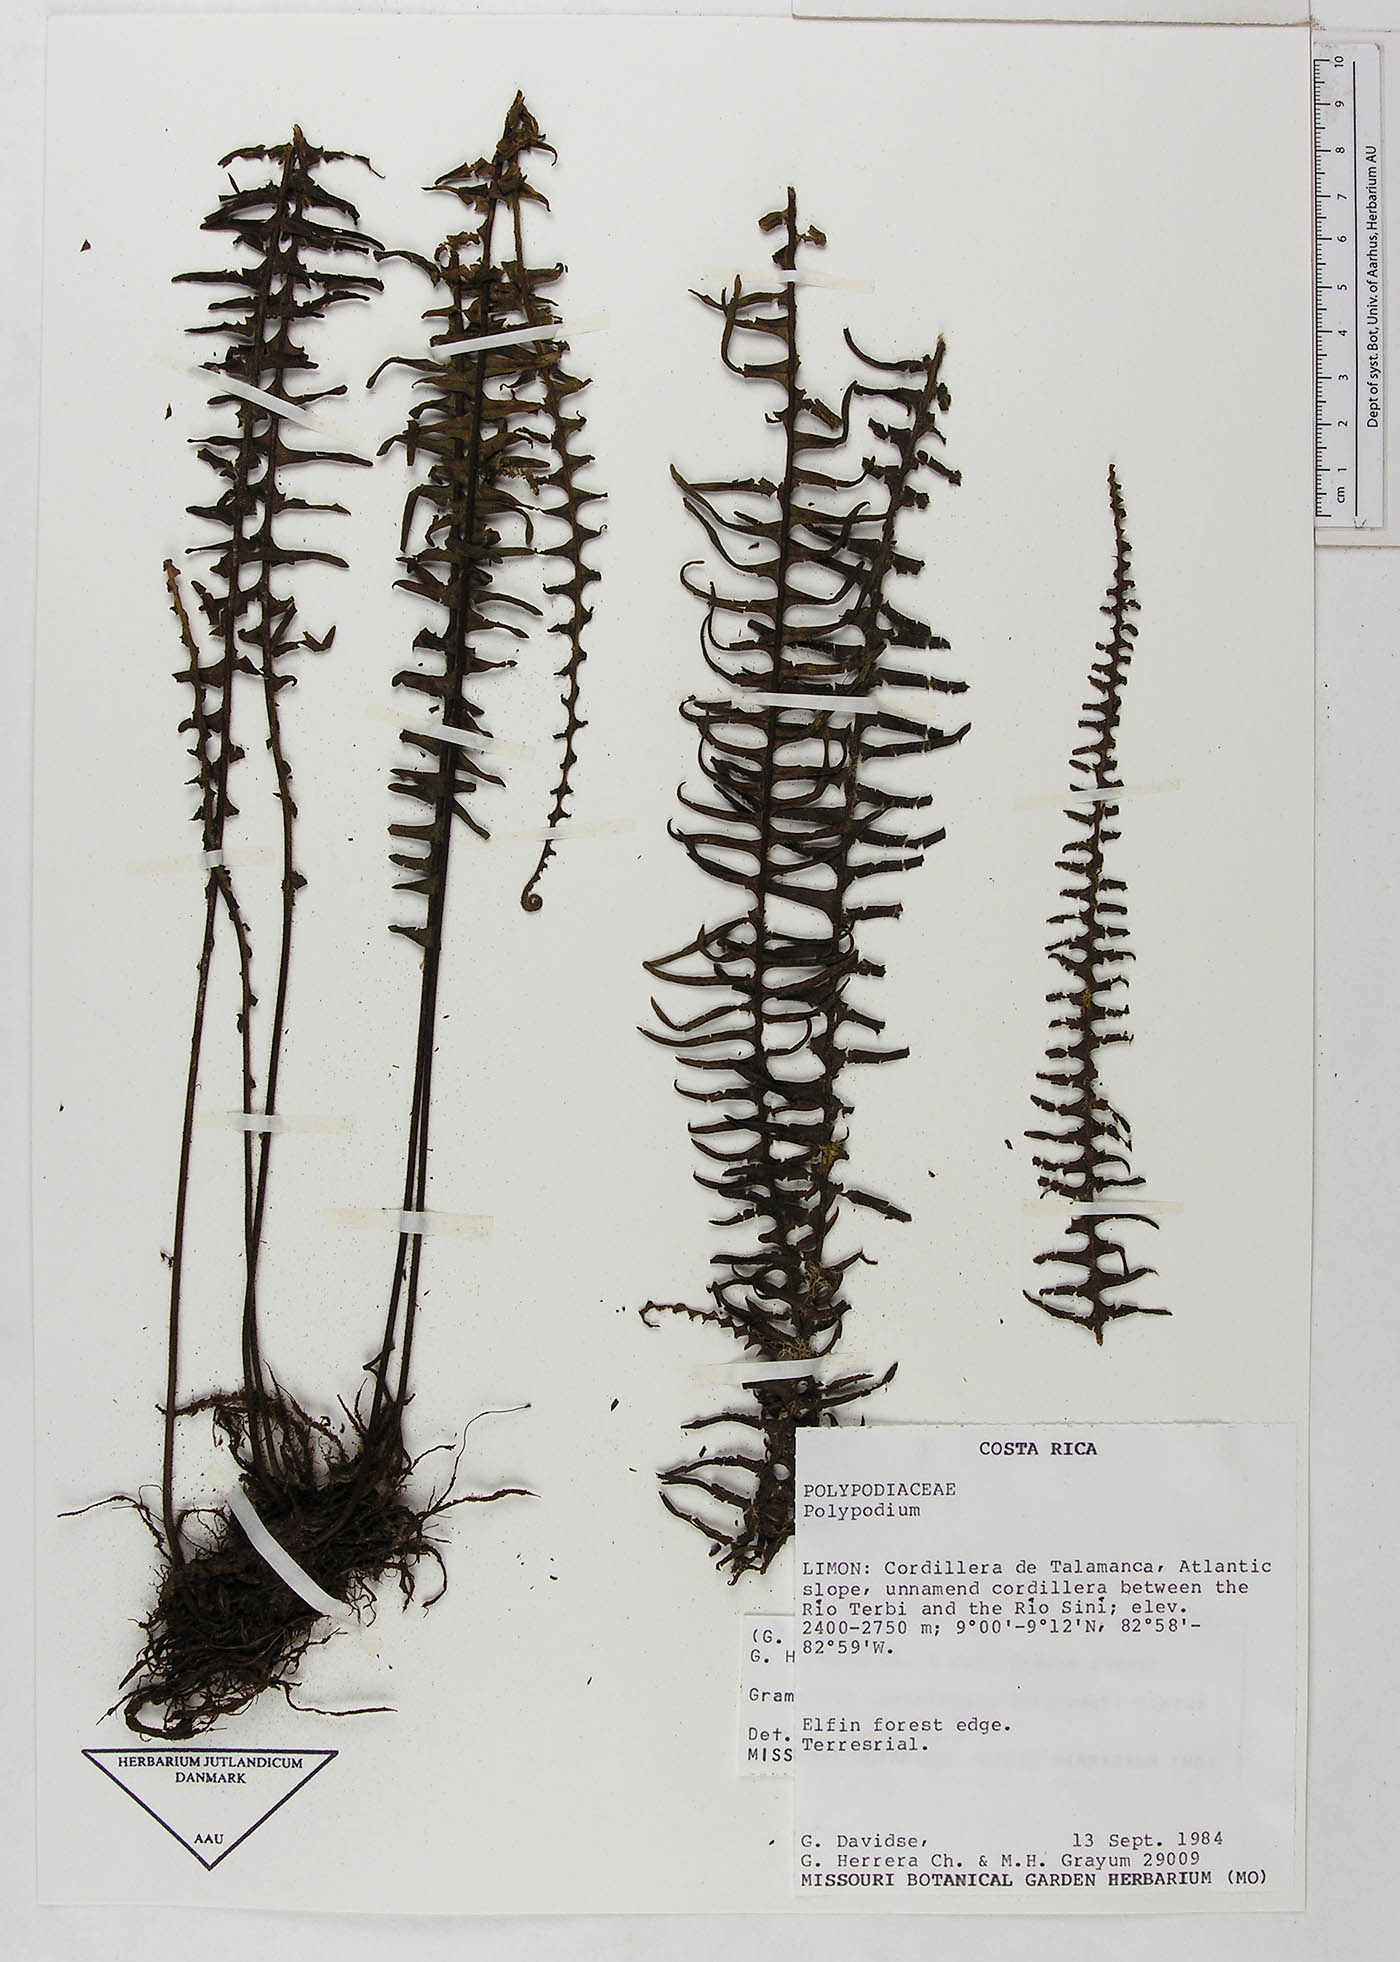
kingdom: Plantae
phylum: Tracheophyta
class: Polypodiopsida
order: Polypodiales
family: Polypodiaceae
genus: Mycopteris
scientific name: Mycopteris semihirsuta
